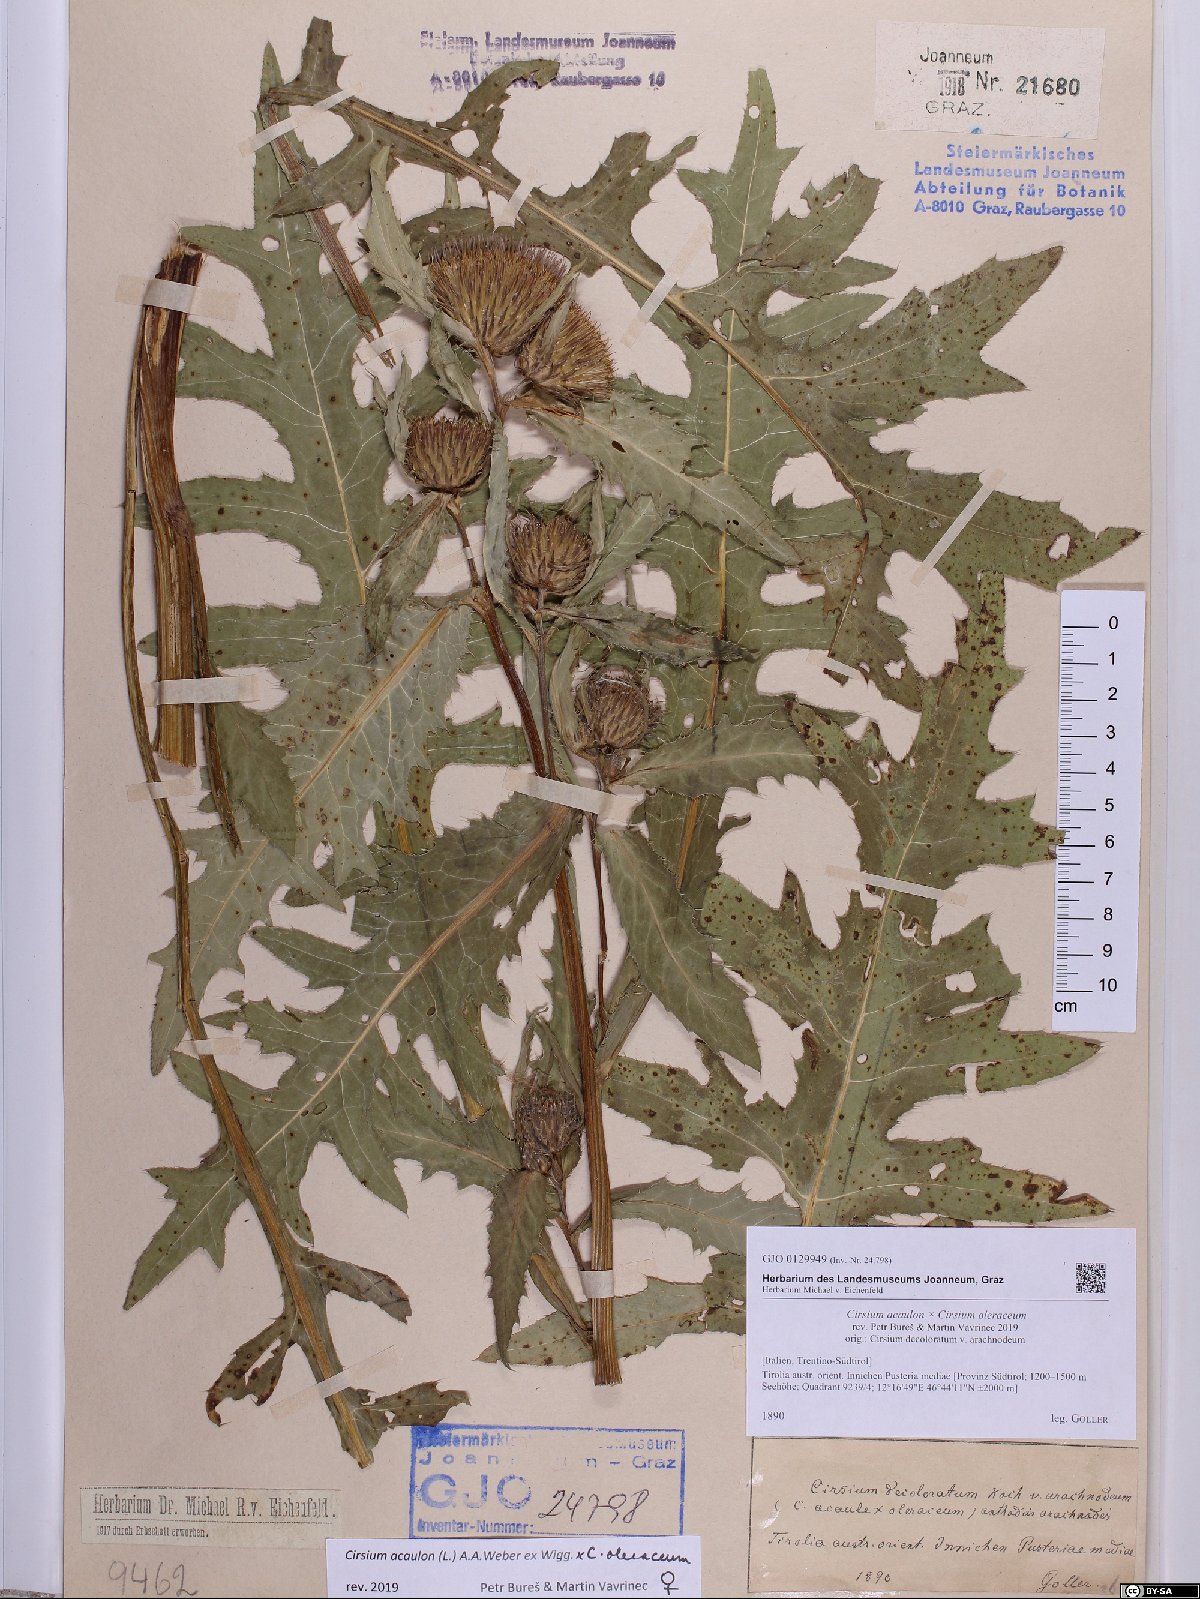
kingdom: Plantae
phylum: Tracheophyta
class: Magnoliopsida
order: Asterales
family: Asteraceae
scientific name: Asteraceae
